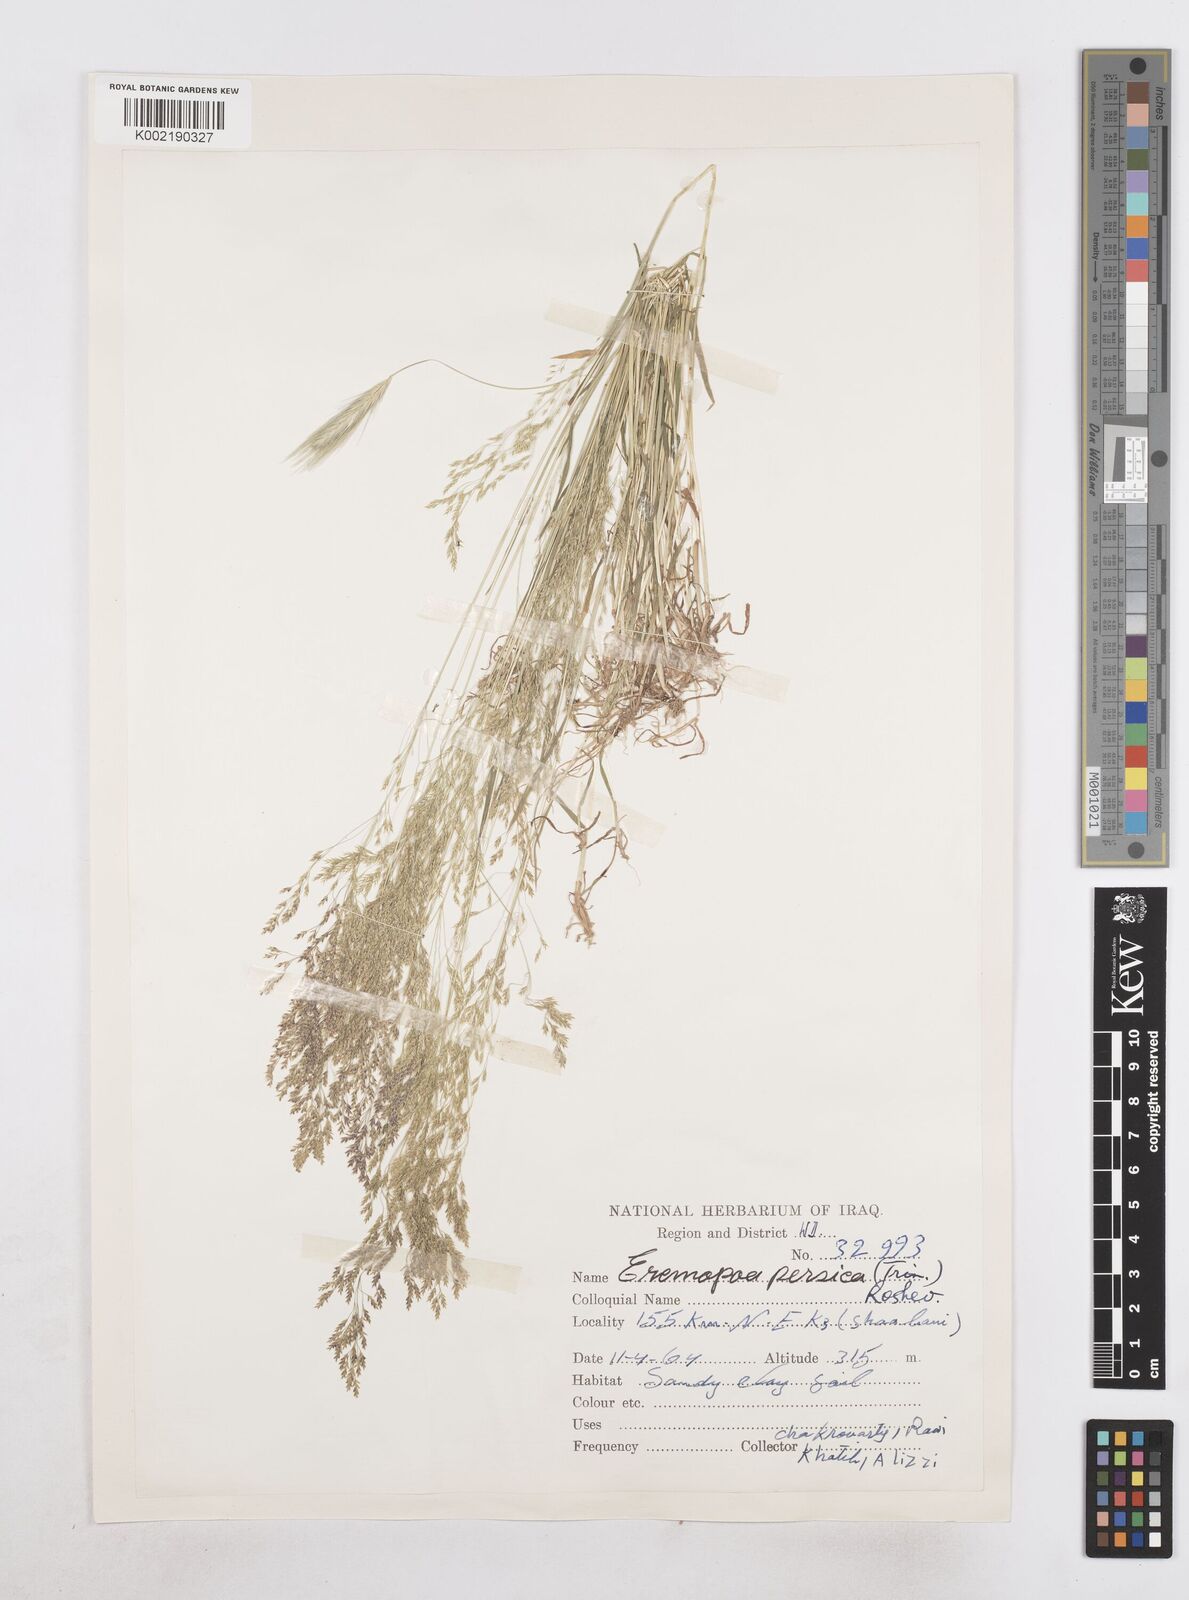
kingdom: Plantae
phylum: Tracheophyta
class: Liliopsida
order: Poales
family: Poaceae
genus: Poa
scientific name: Poa persica
